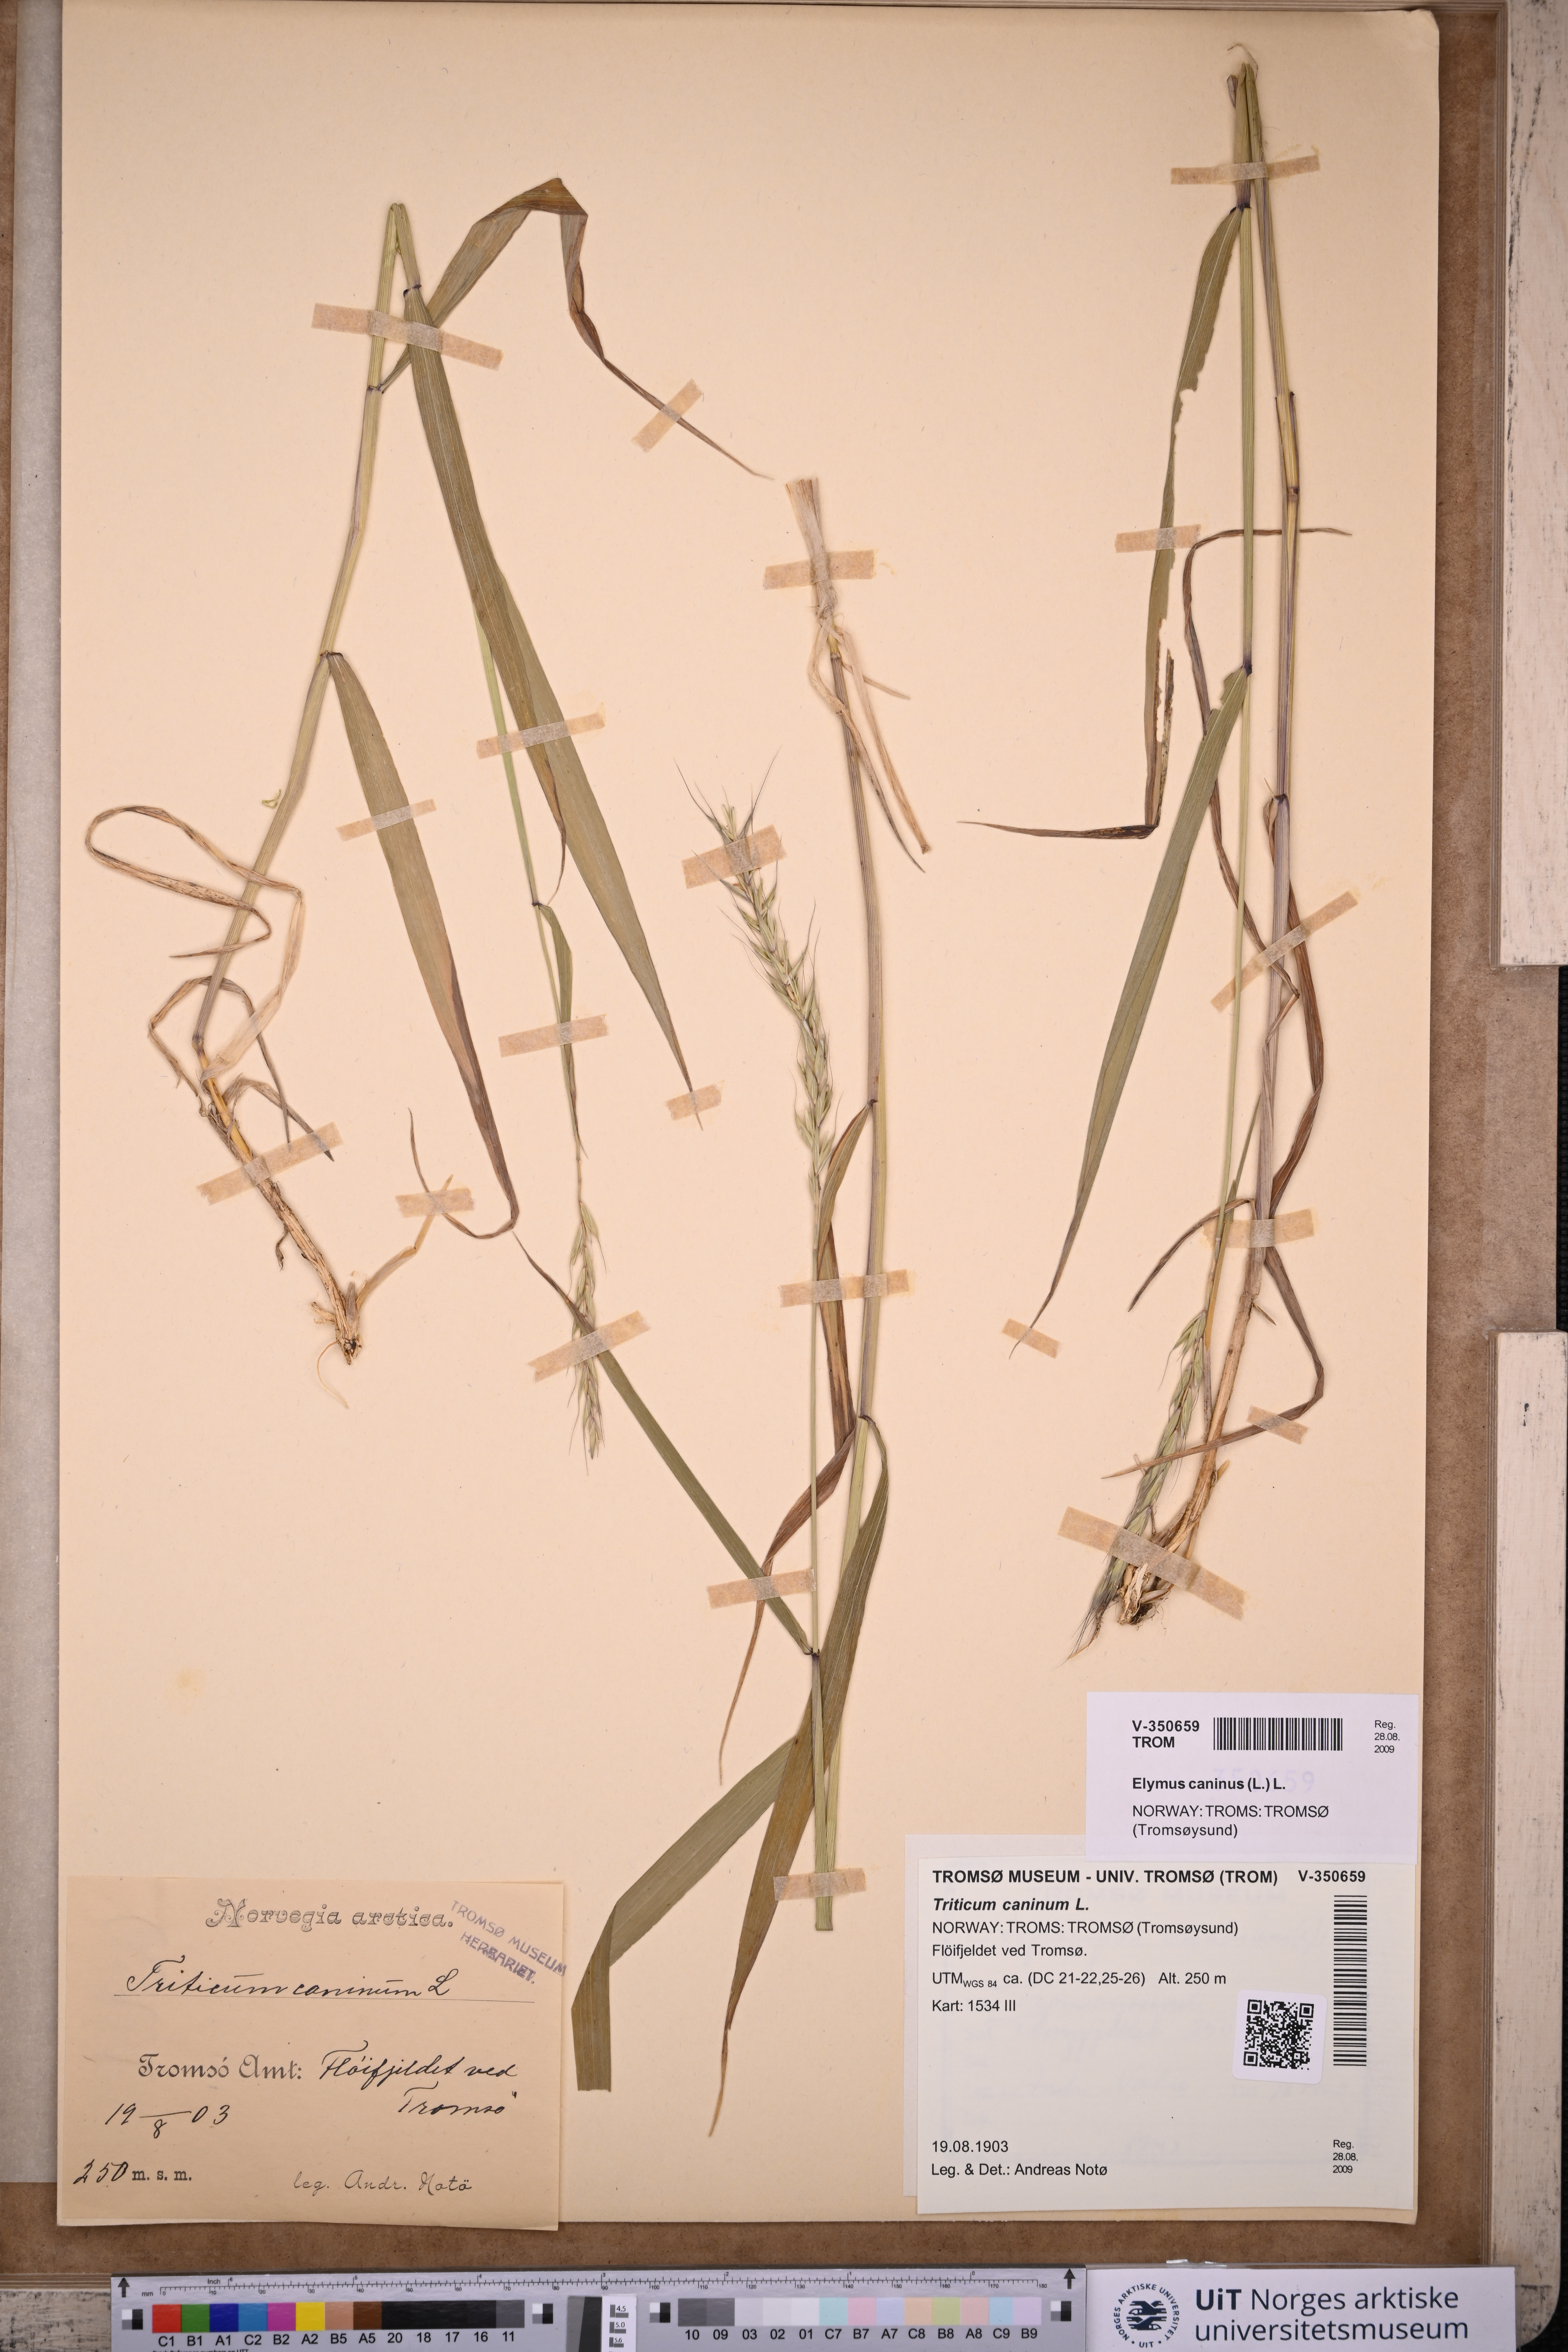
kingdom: Plantae
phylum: Tracheophyta
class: Liliopsida
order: Poales
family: Poaceae
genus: Elymus
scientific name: Elymus caninus
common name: Bearded couch
